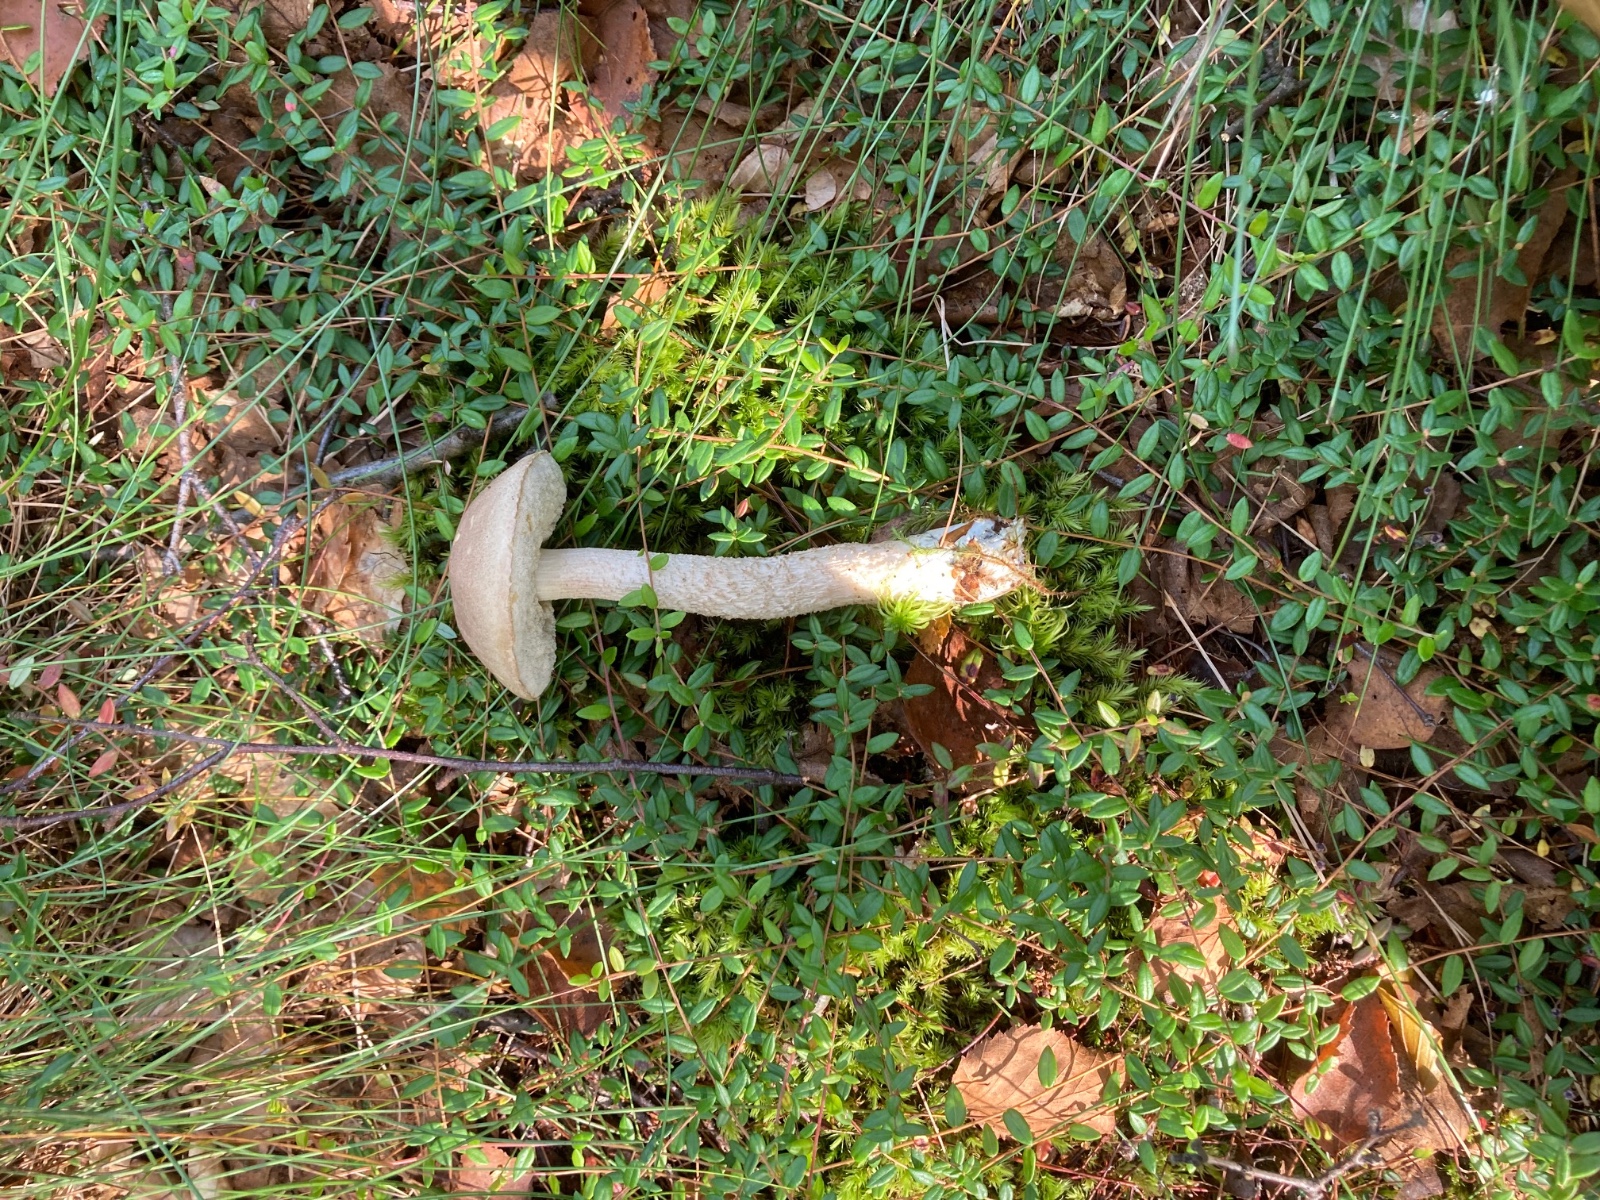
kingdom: Fungi
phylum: Basidiomycota
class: Agaricomycetes
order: Boletales
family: Boletaceae
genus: Leccinum
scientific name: Leccinum schistophilum
